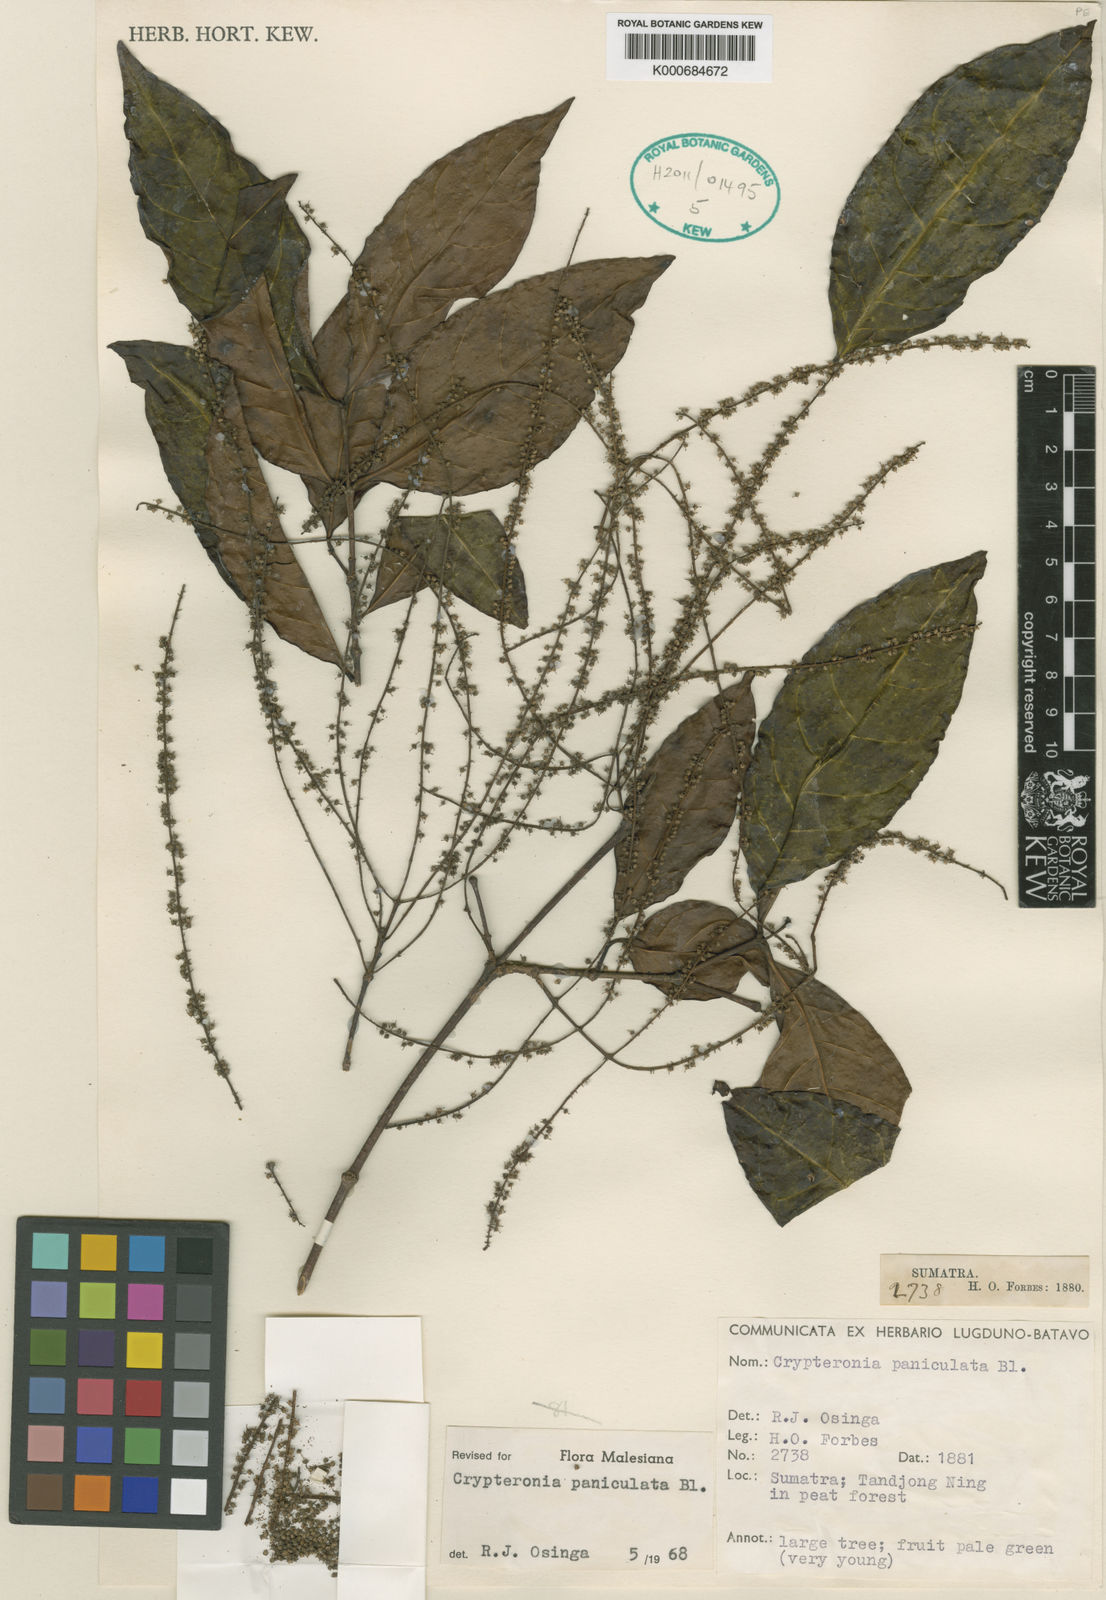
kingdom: Plantae
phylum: Tracheophyta
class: Magnoliopsida
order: Myrtales
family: Crypteroniaceae
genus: Crypteronia
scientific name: Crypteronia paniculata
